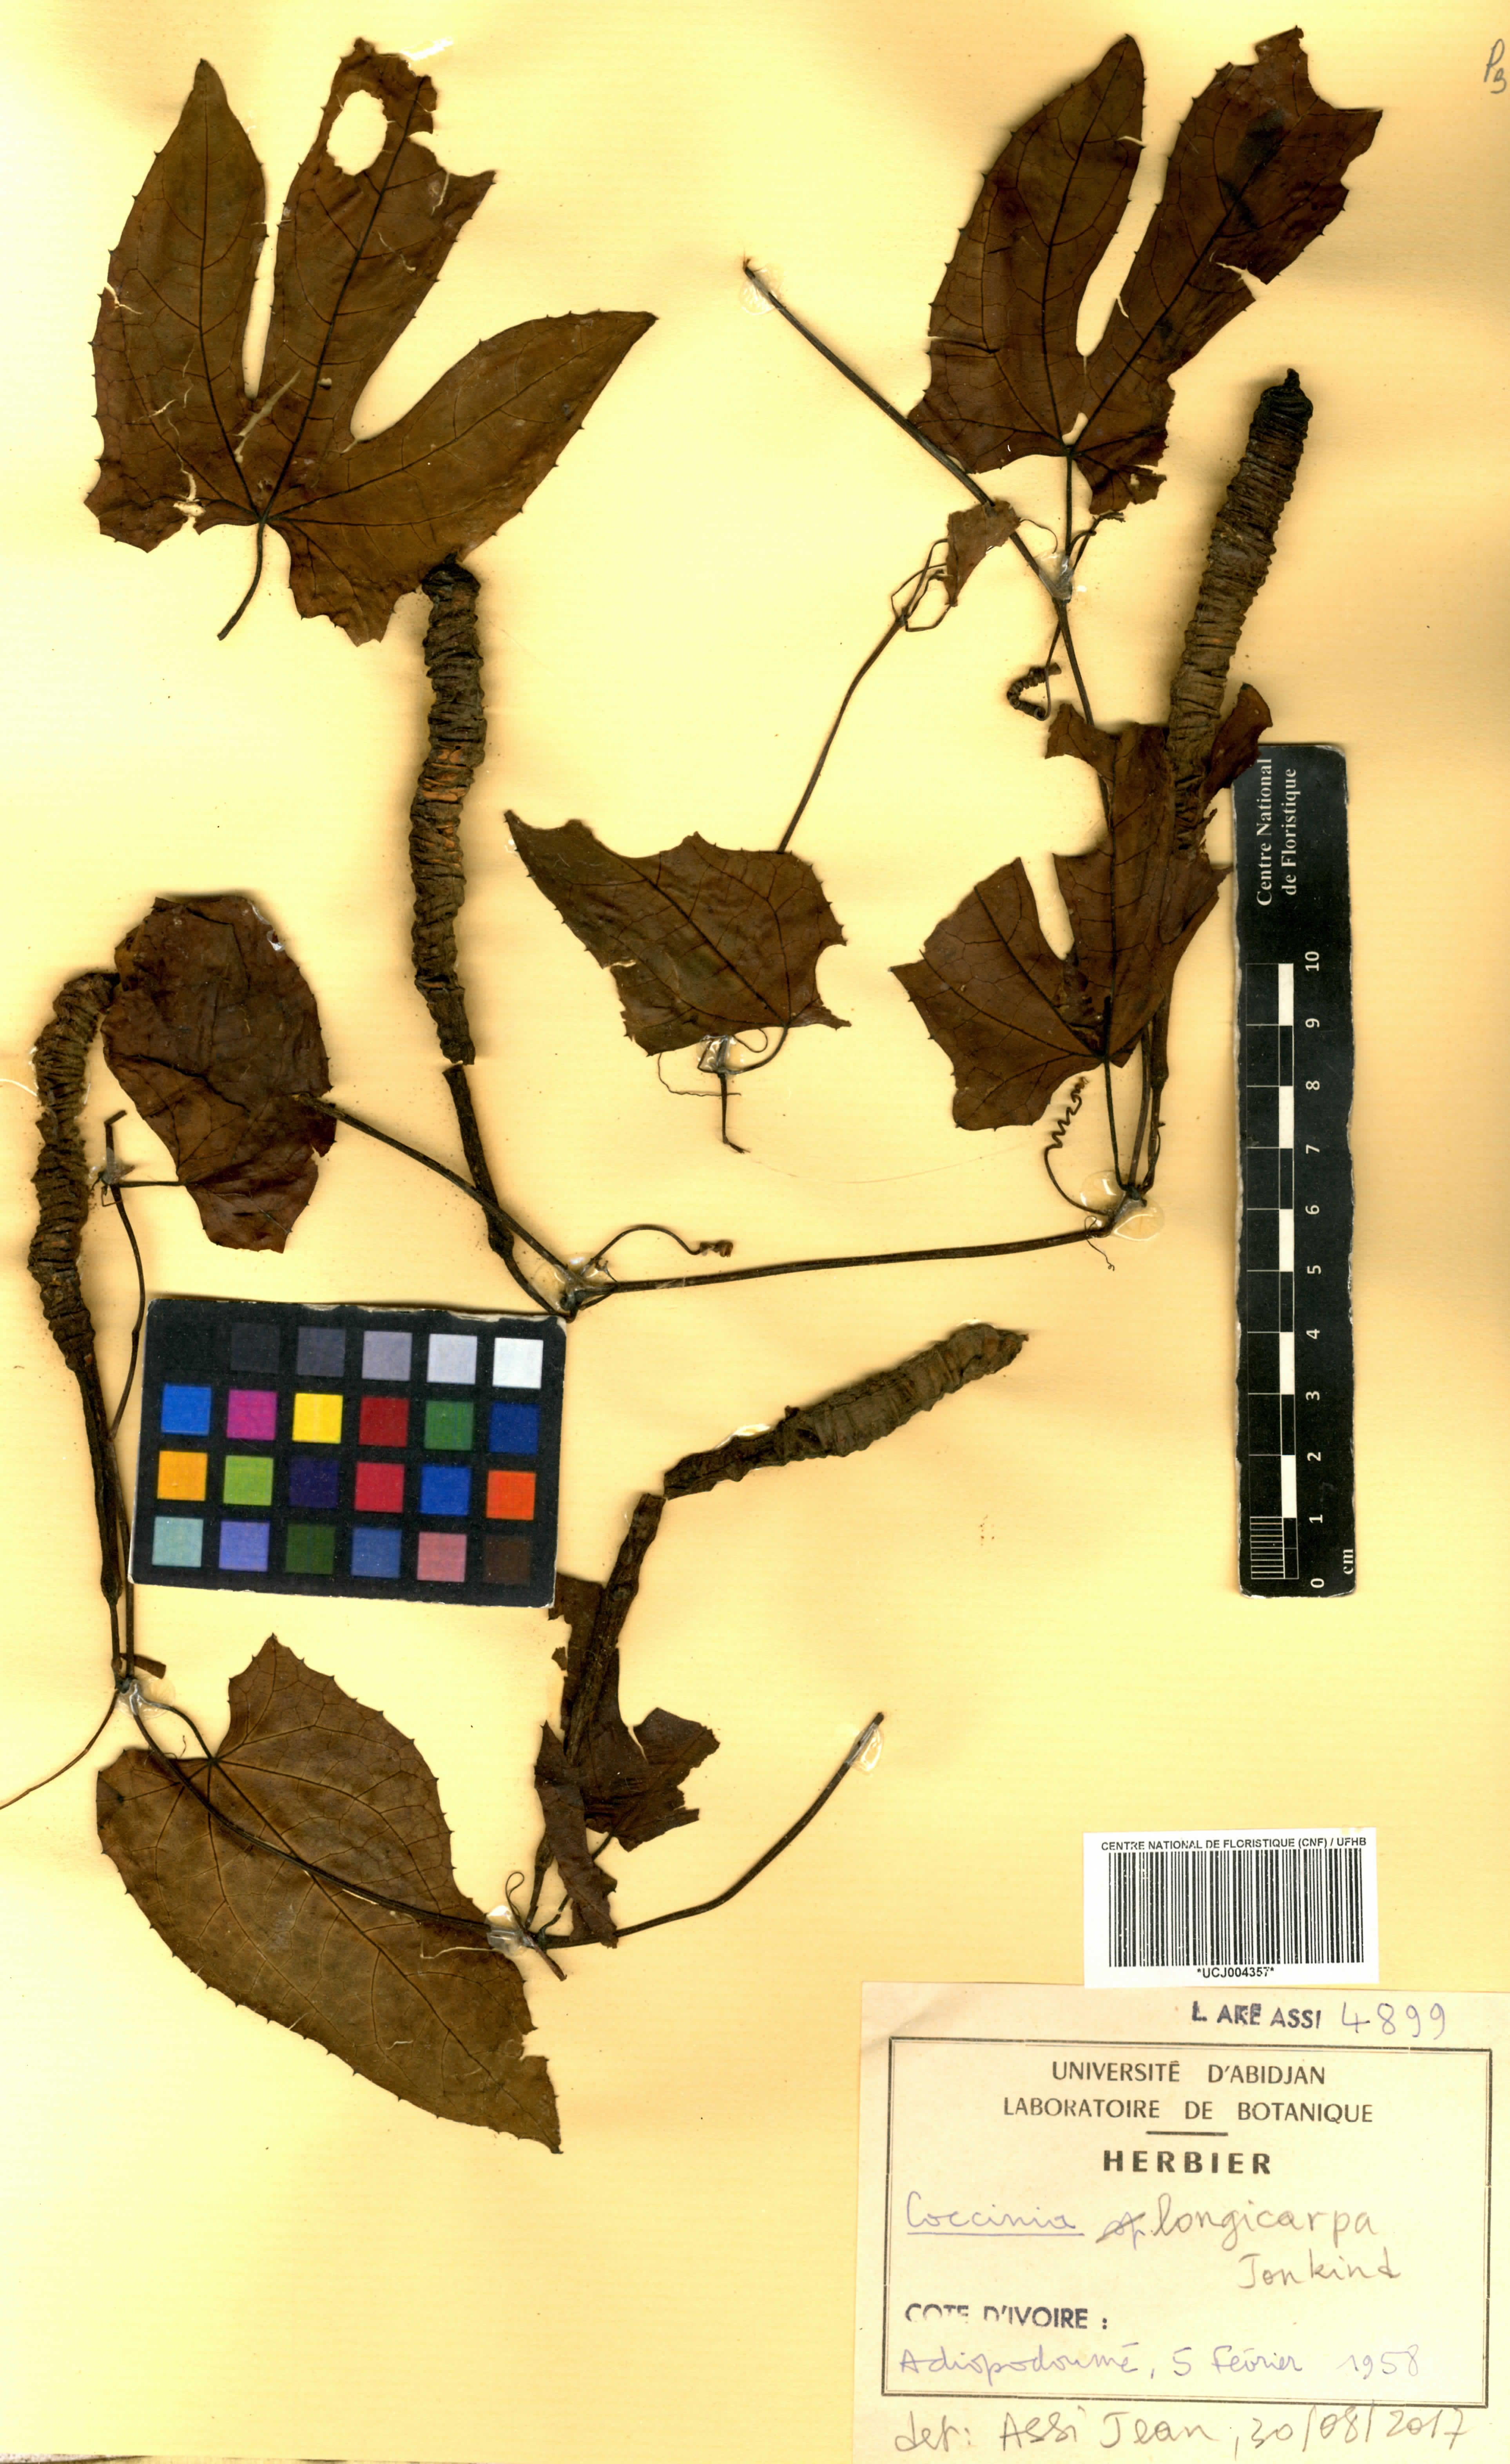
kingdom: Plantae
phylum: Tracheophyta
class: Magnoliopsida
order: Cucurbitales
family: Cucurbitaceae
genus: Coccinia
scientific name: Coccinia longicarpa
